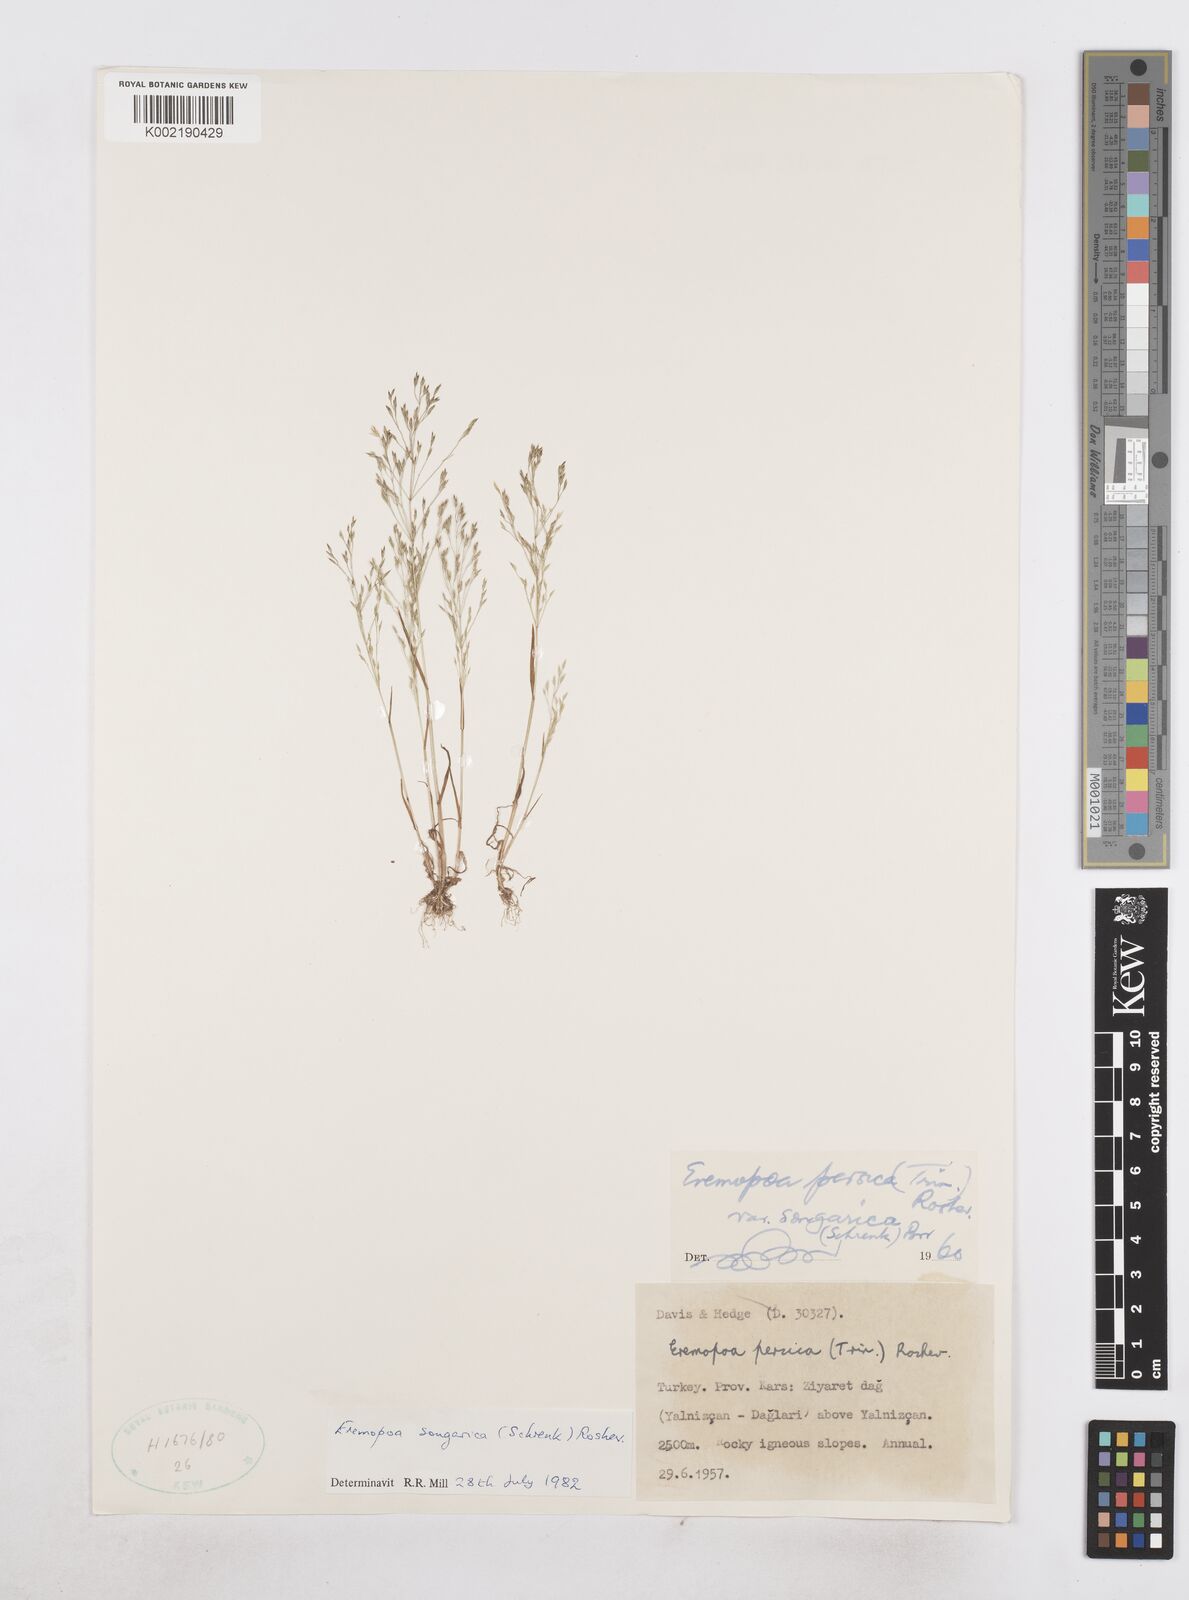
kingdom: Plantae
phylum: Tracheophyta
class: Liliopsida
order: Poales
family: Poaceae
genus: Poa
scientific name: Poa diaphora
